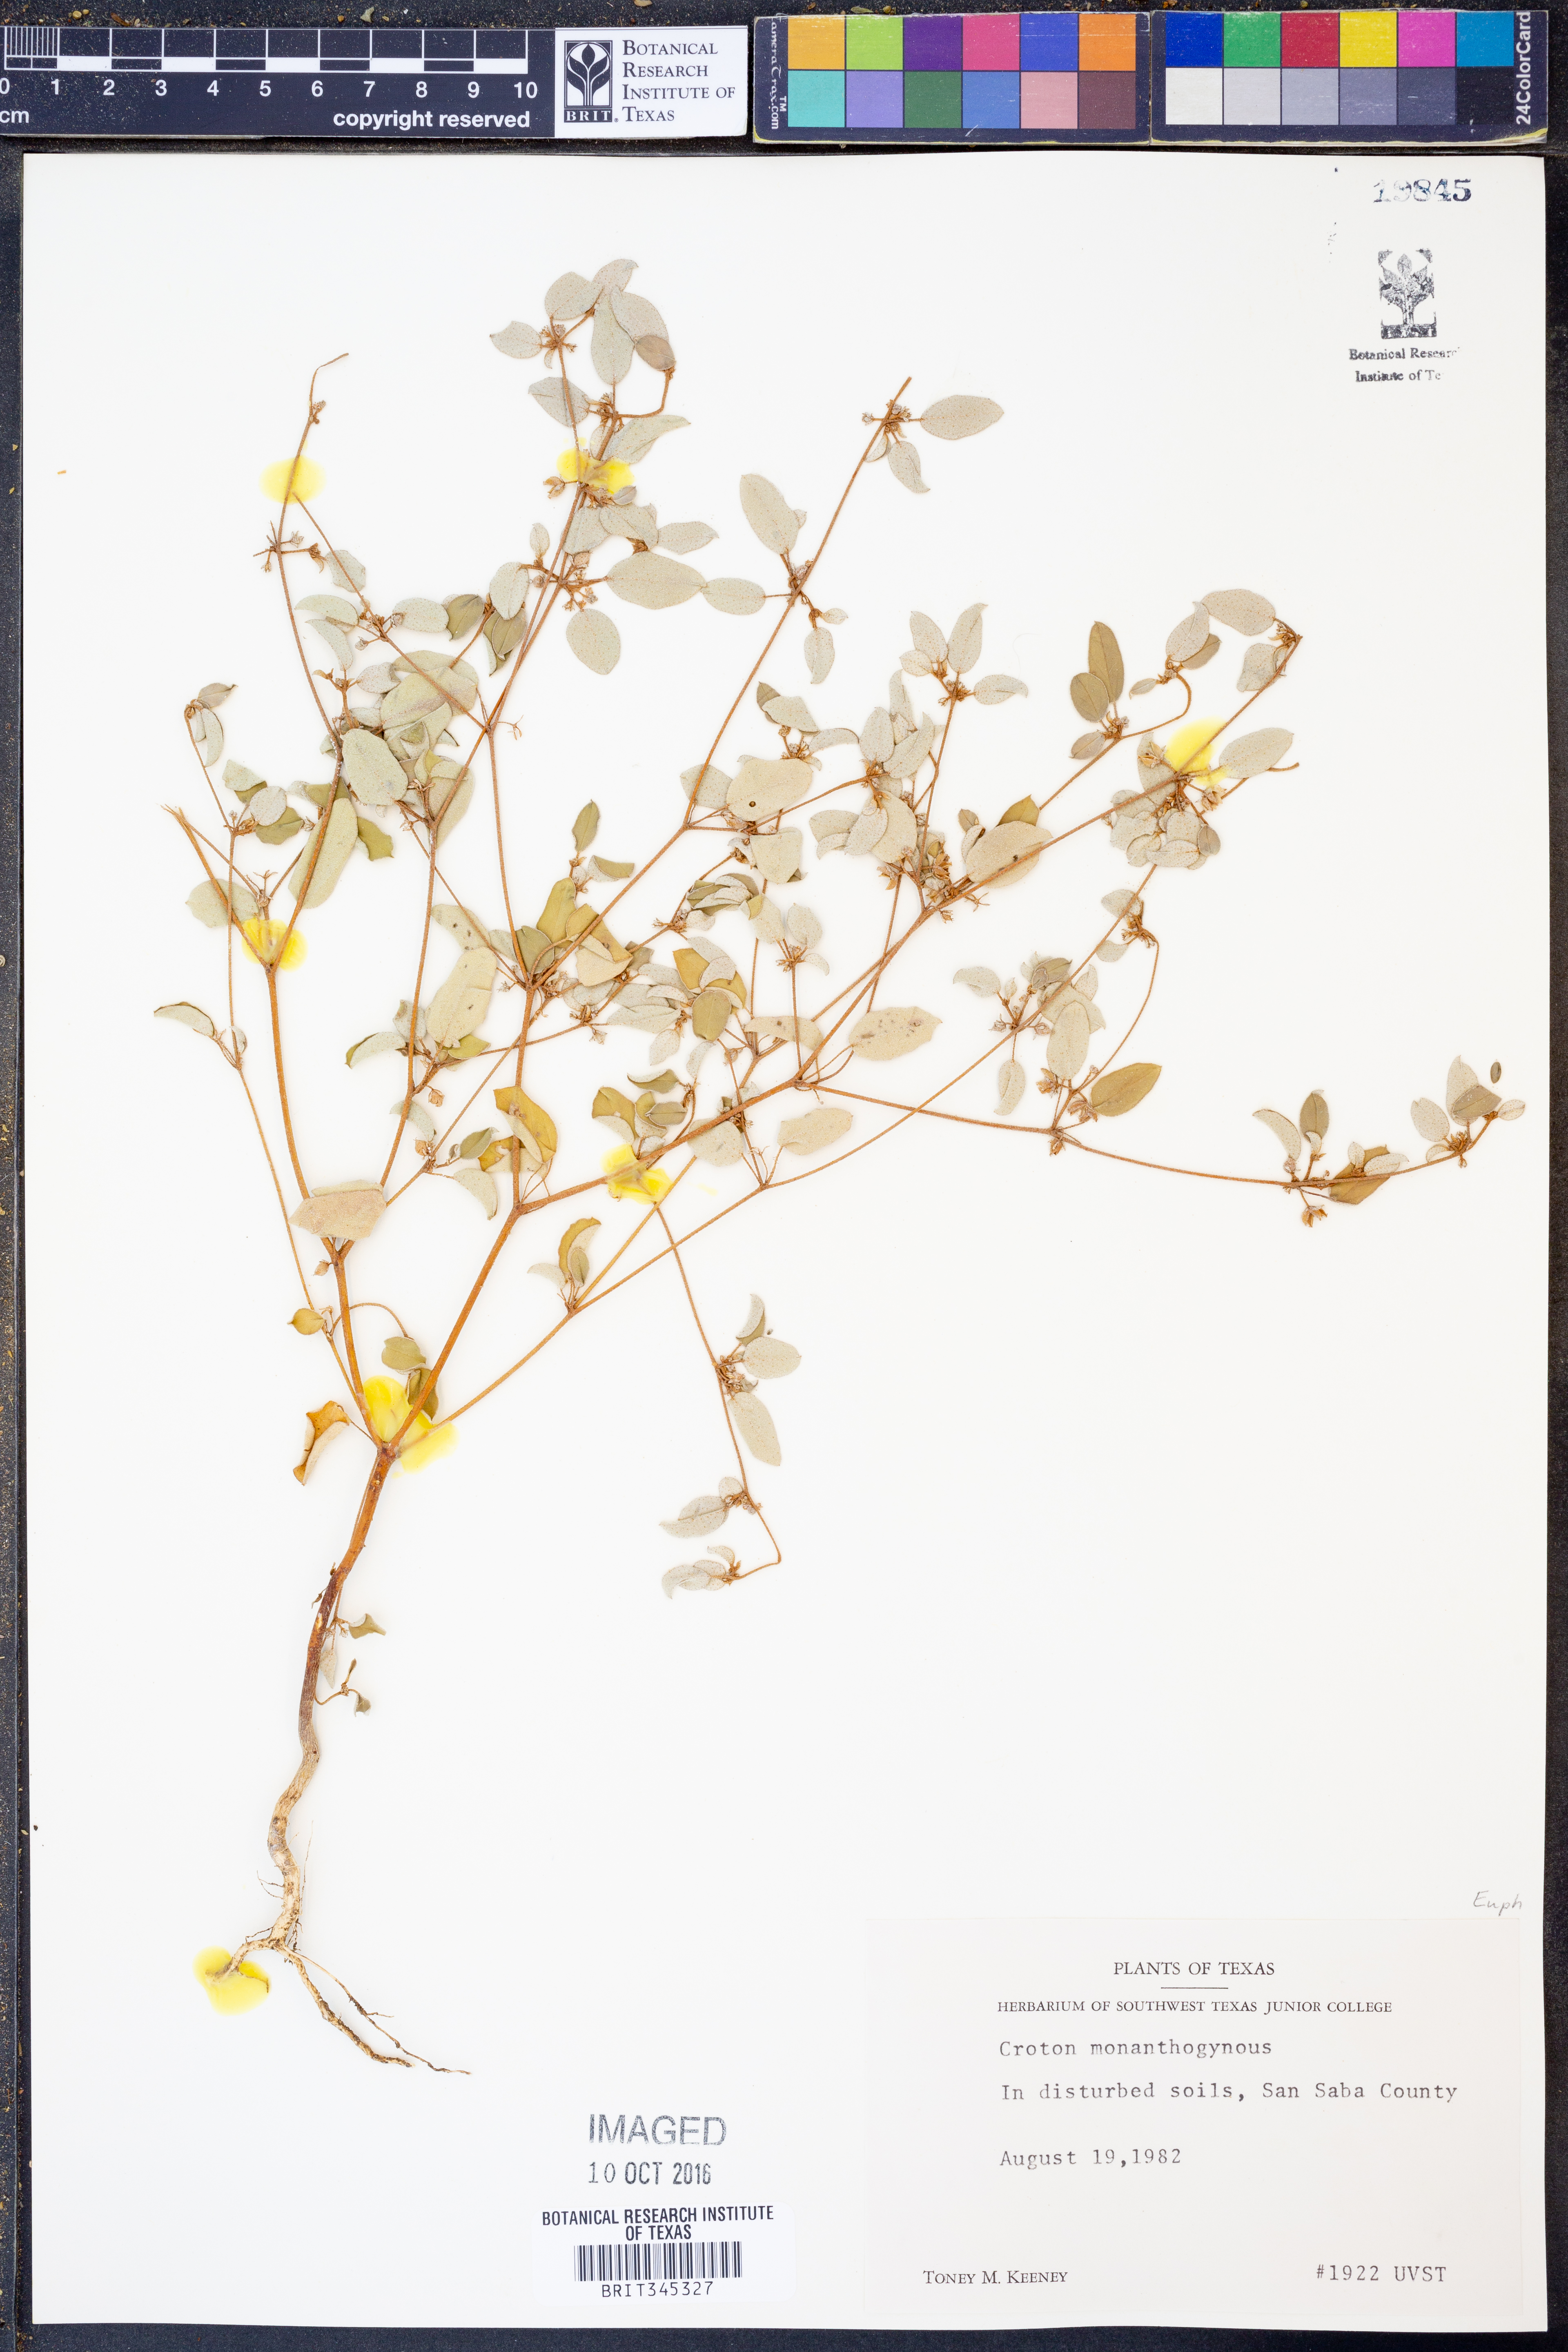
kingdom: Plantae
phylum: Tracheophyta
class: Magnoliopsida
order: Malpighiales
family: Euphorbiaceae
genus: Croton
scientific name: Croton monanthogynus
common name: One-seed croton
